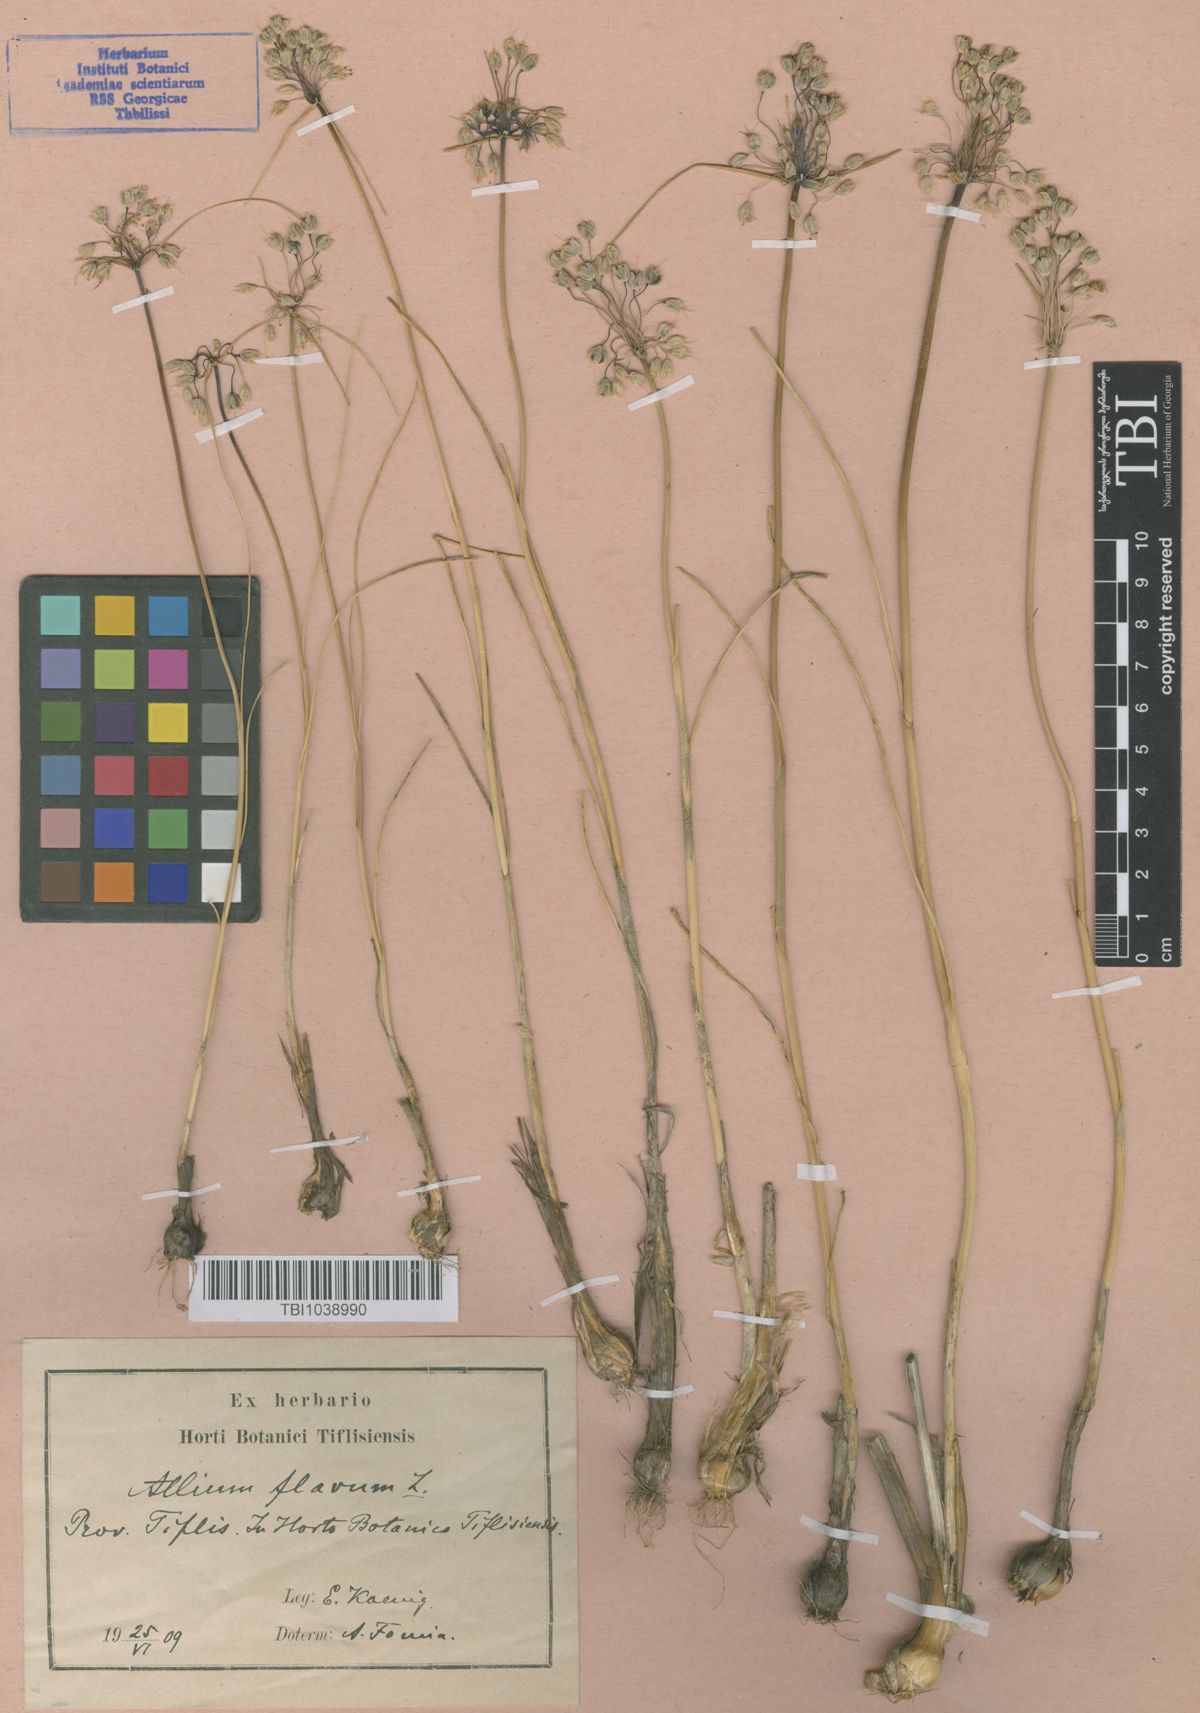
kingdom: Plantae
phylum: Tracheophyta
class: Liliopsida
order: Asparagales
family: Amaryllidaceae
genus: Allium
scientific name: Allium pseudoflavum
